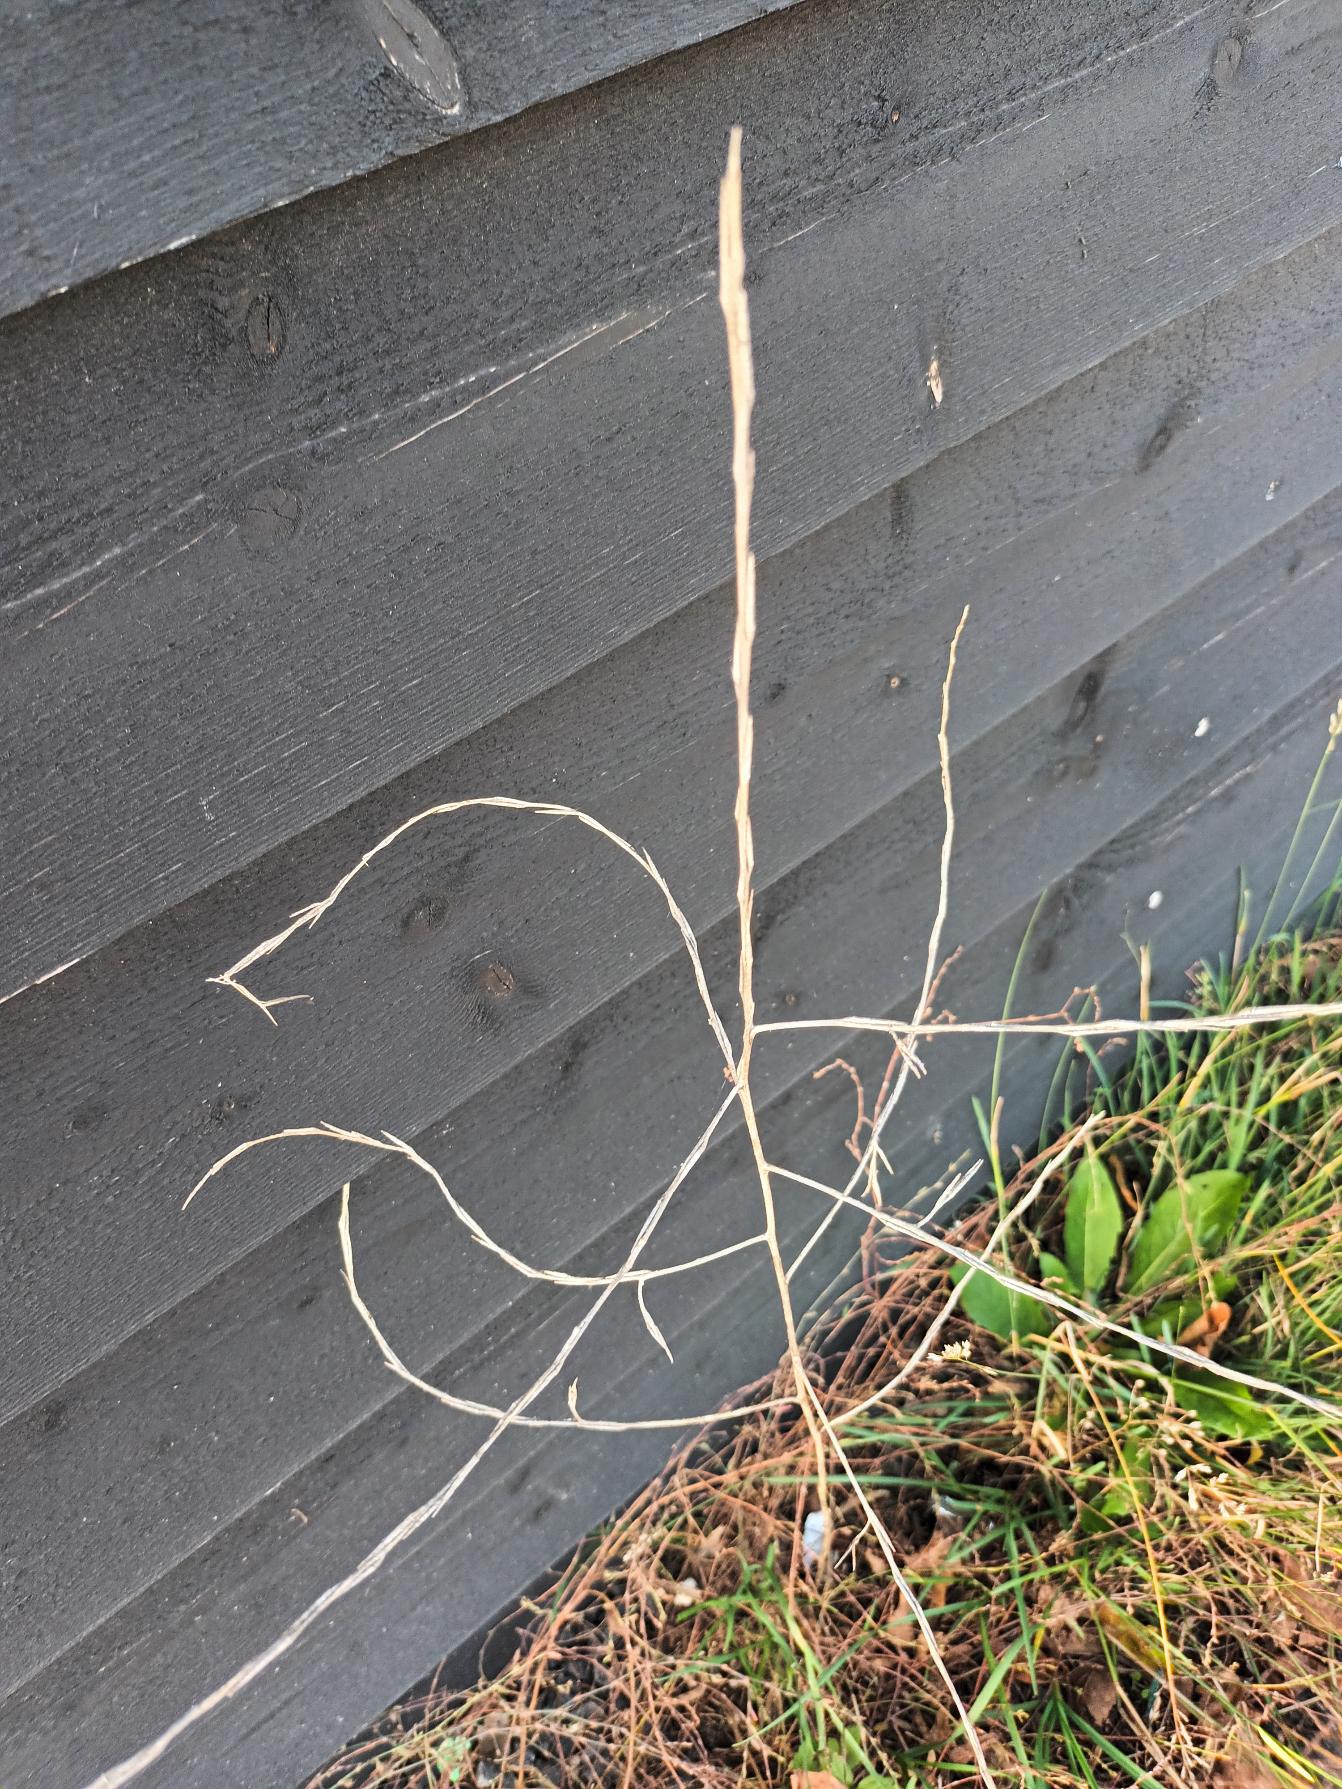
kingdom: Plantae
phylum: Tracheophyta
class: Magnoliopsida
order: Brassicales
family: Brassicaceae
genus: Sisymbrium
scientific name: Sisymbrium officinale
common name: Rank vejsennep
